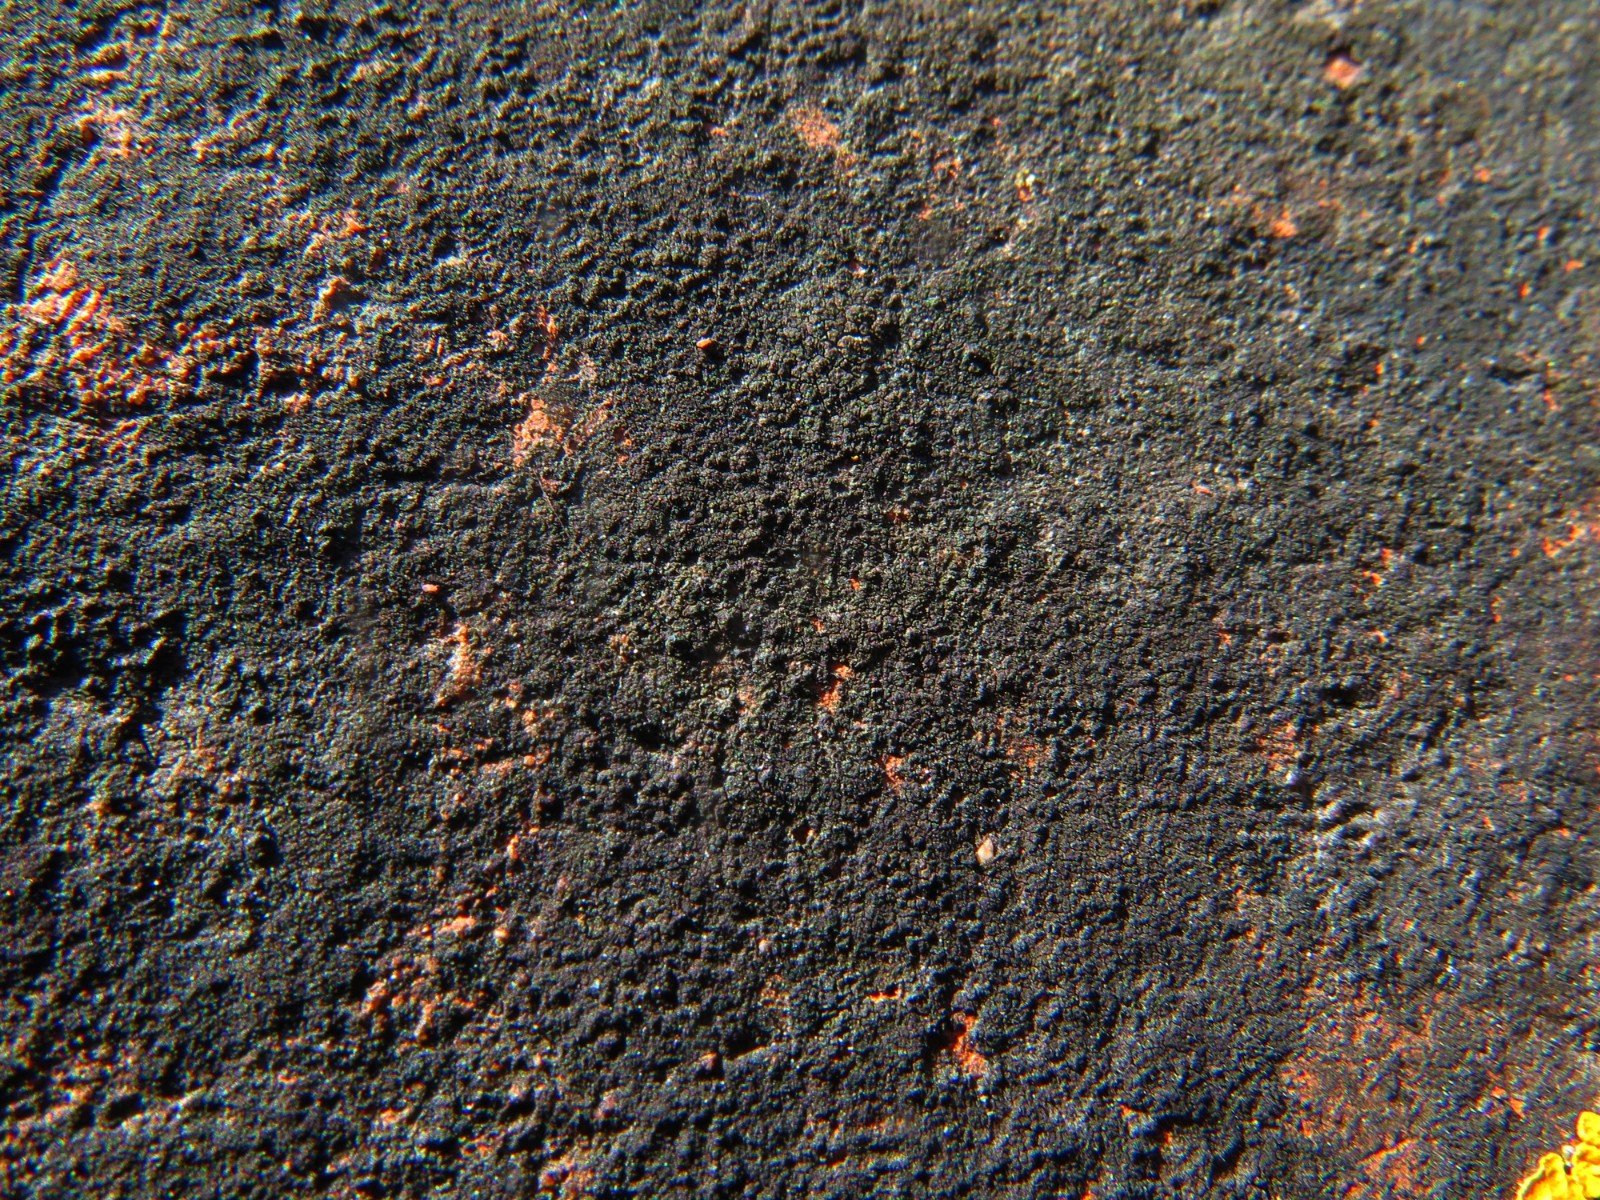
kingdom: Fungi
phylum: Ascomycota
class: Eurotiomycetes
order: Verrucariales
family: Verrucariaceae
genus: Verrucaria
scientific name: Verrucaria nigrescens
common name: sortbrun vortelav
